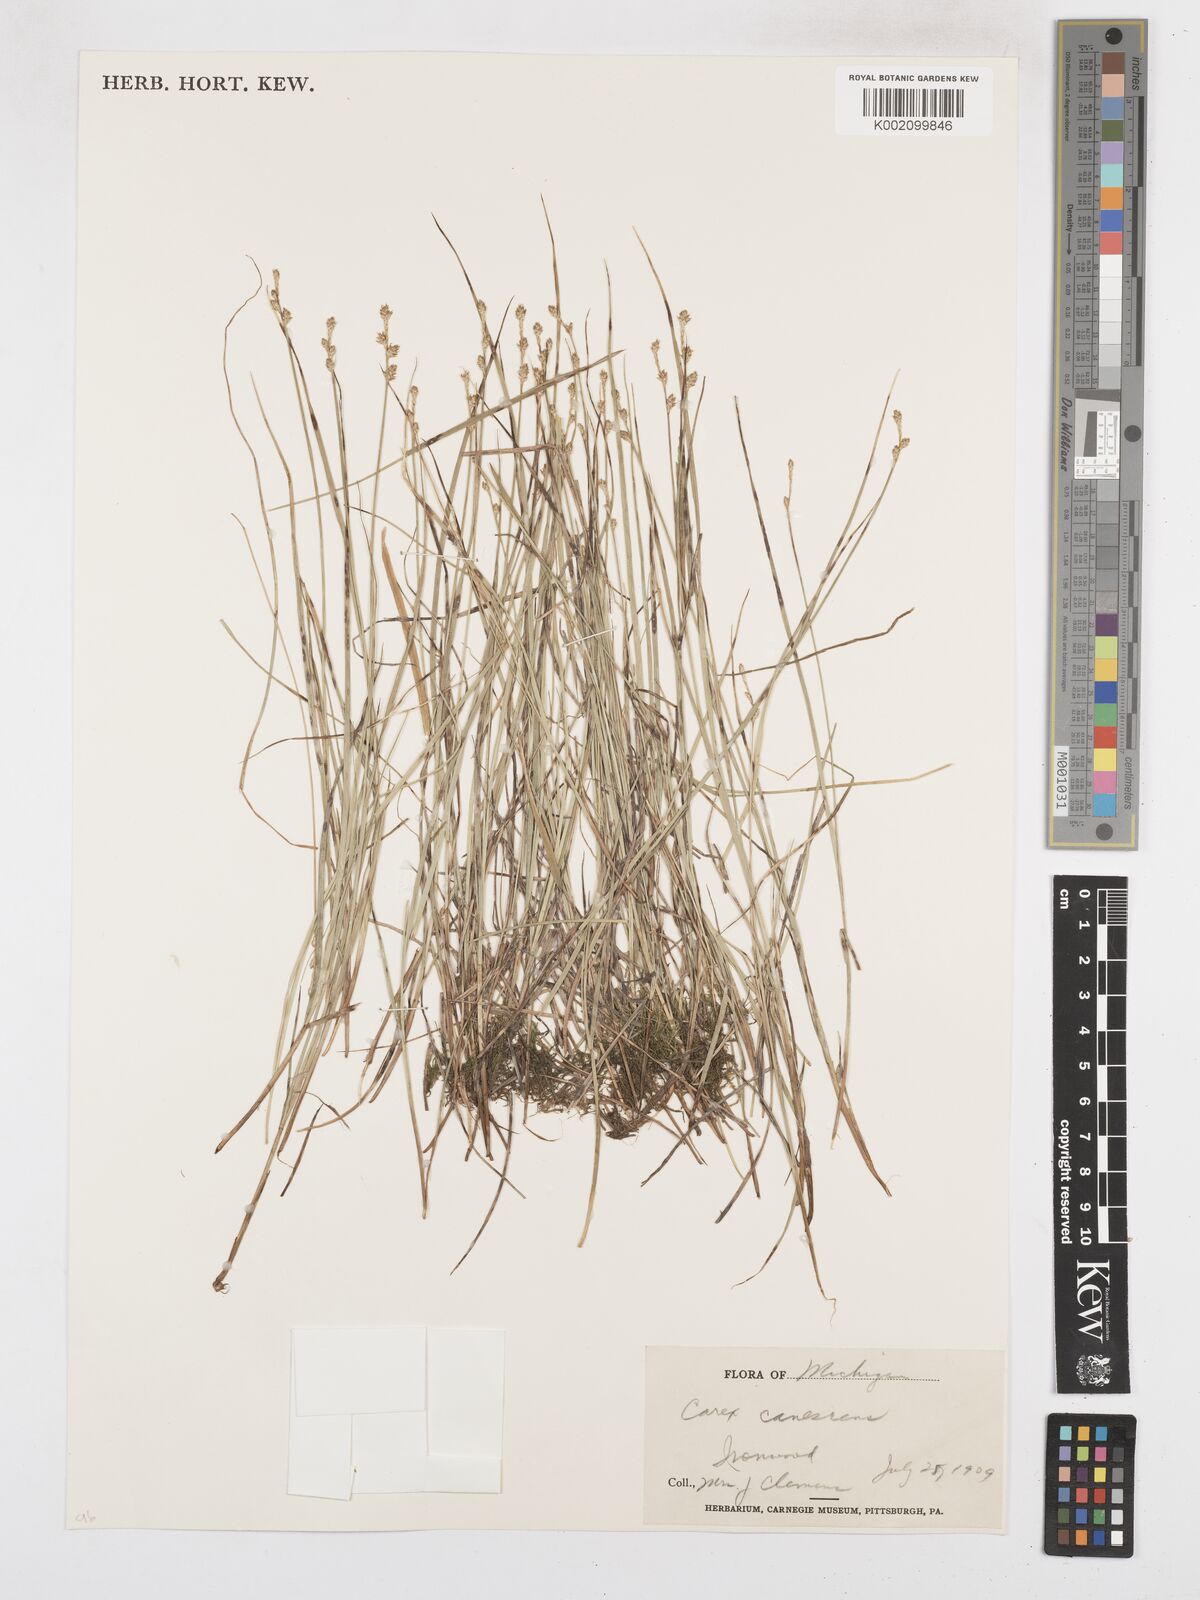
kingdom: Plantae
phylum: Tracheophyta
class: Liliopsida
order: Poales
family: Cyperaceae
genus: Carex
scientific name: Carex curta
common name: White sedge
